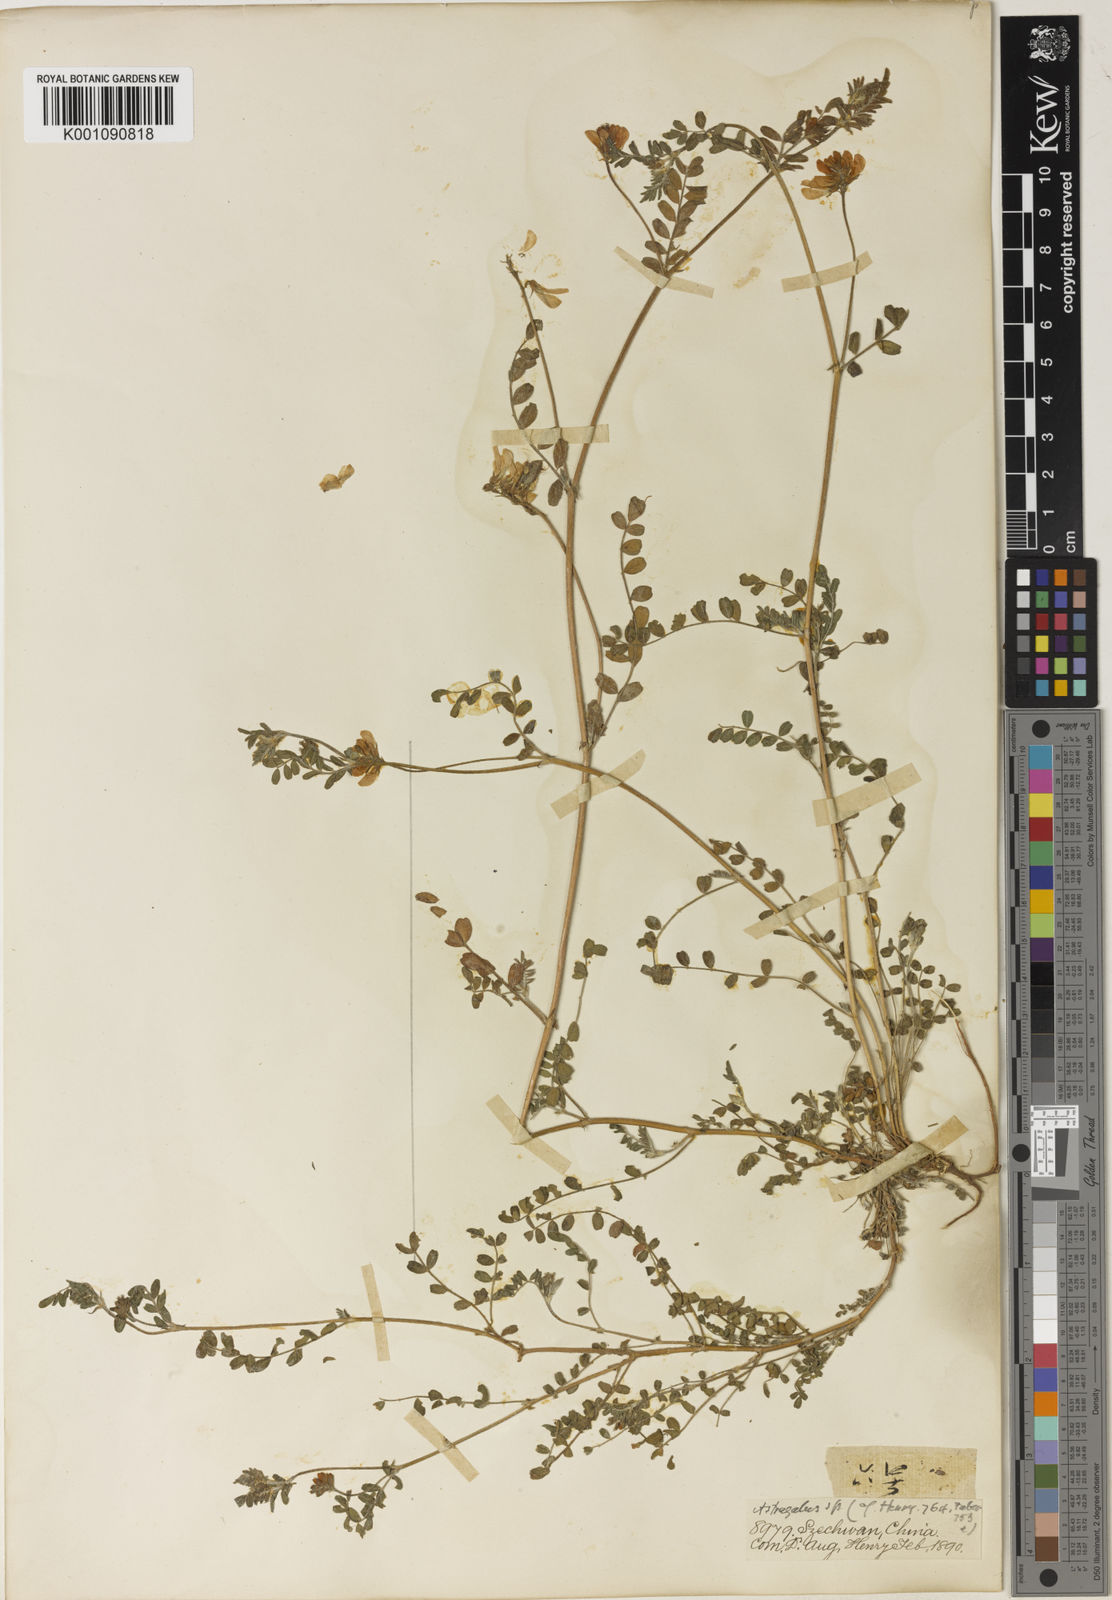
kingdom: Plantae
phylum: Tracheophyta
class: Magnoliopsida
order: Fabales
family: Fabaceae
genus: Astragalus
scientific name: Astragalus
